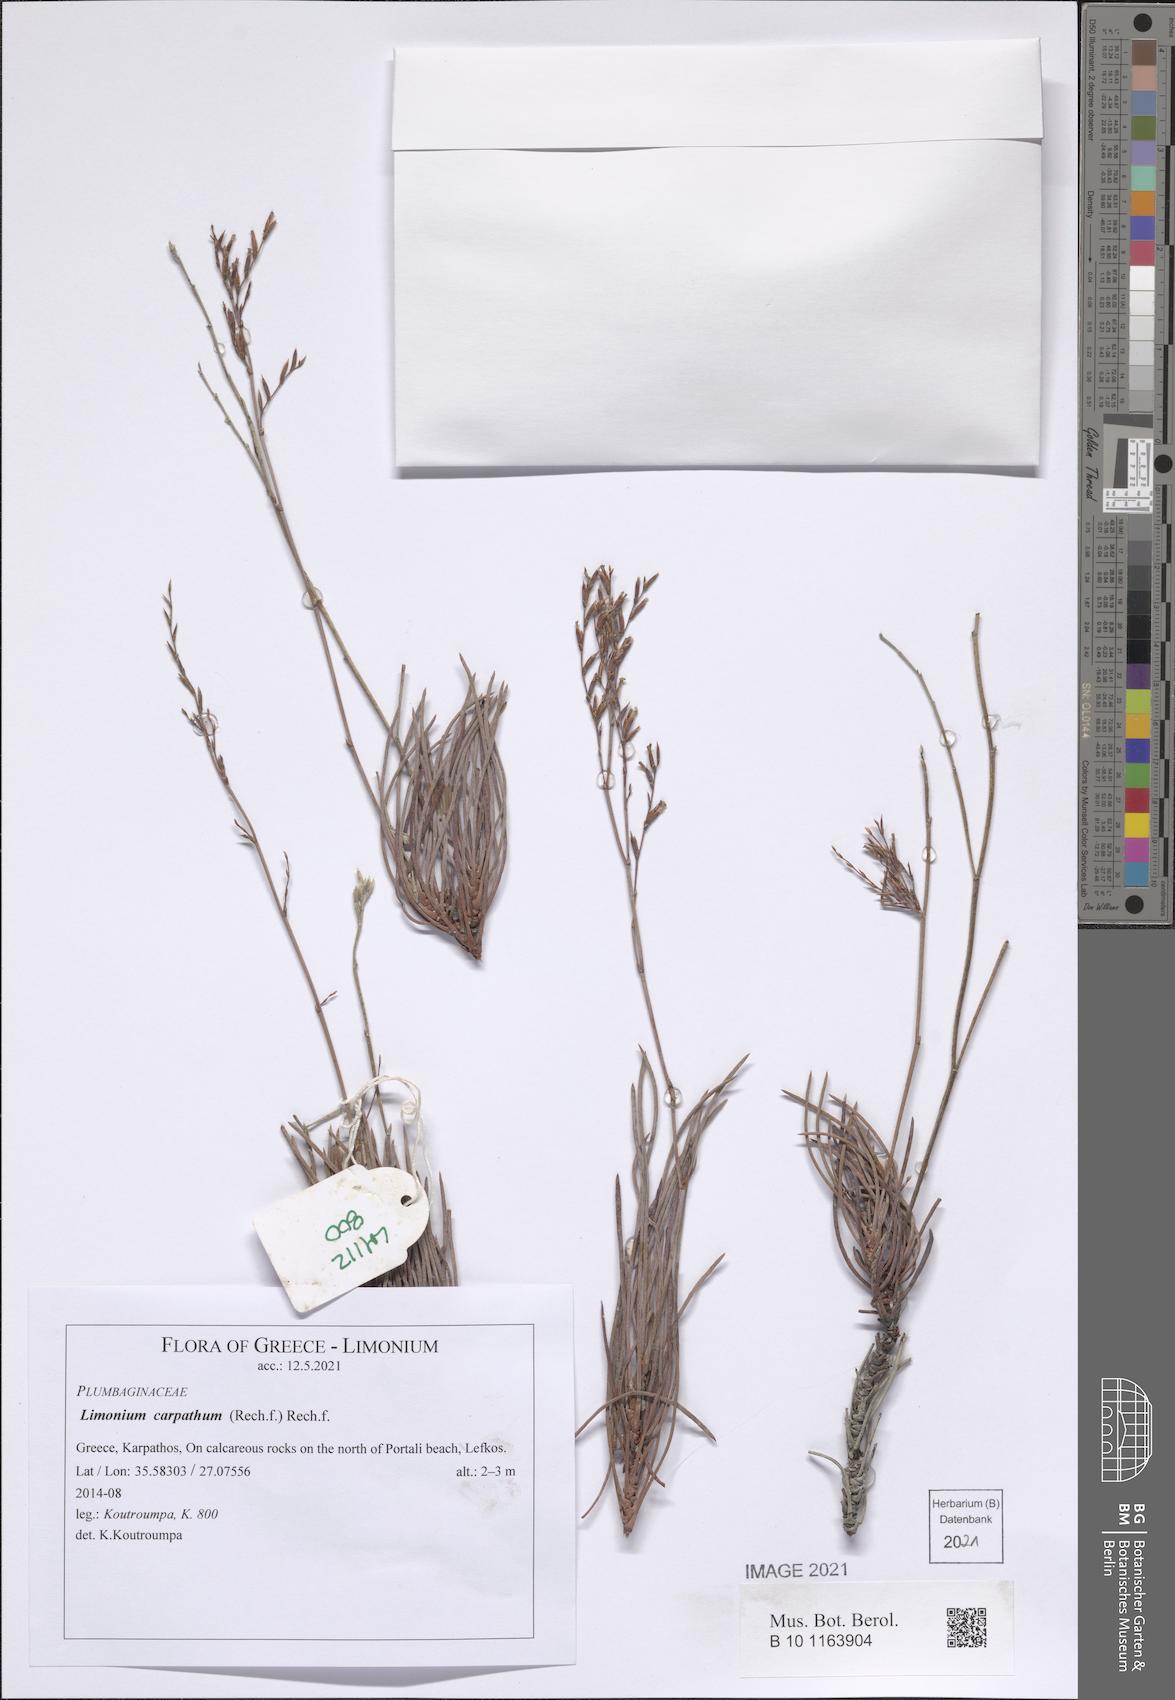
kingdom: Plantae
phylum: Tracheophyta
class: Magnoliopsida
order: Caryophyllales
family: Plumbaginaceae
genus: Limonium
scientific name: Limonium carpathum
